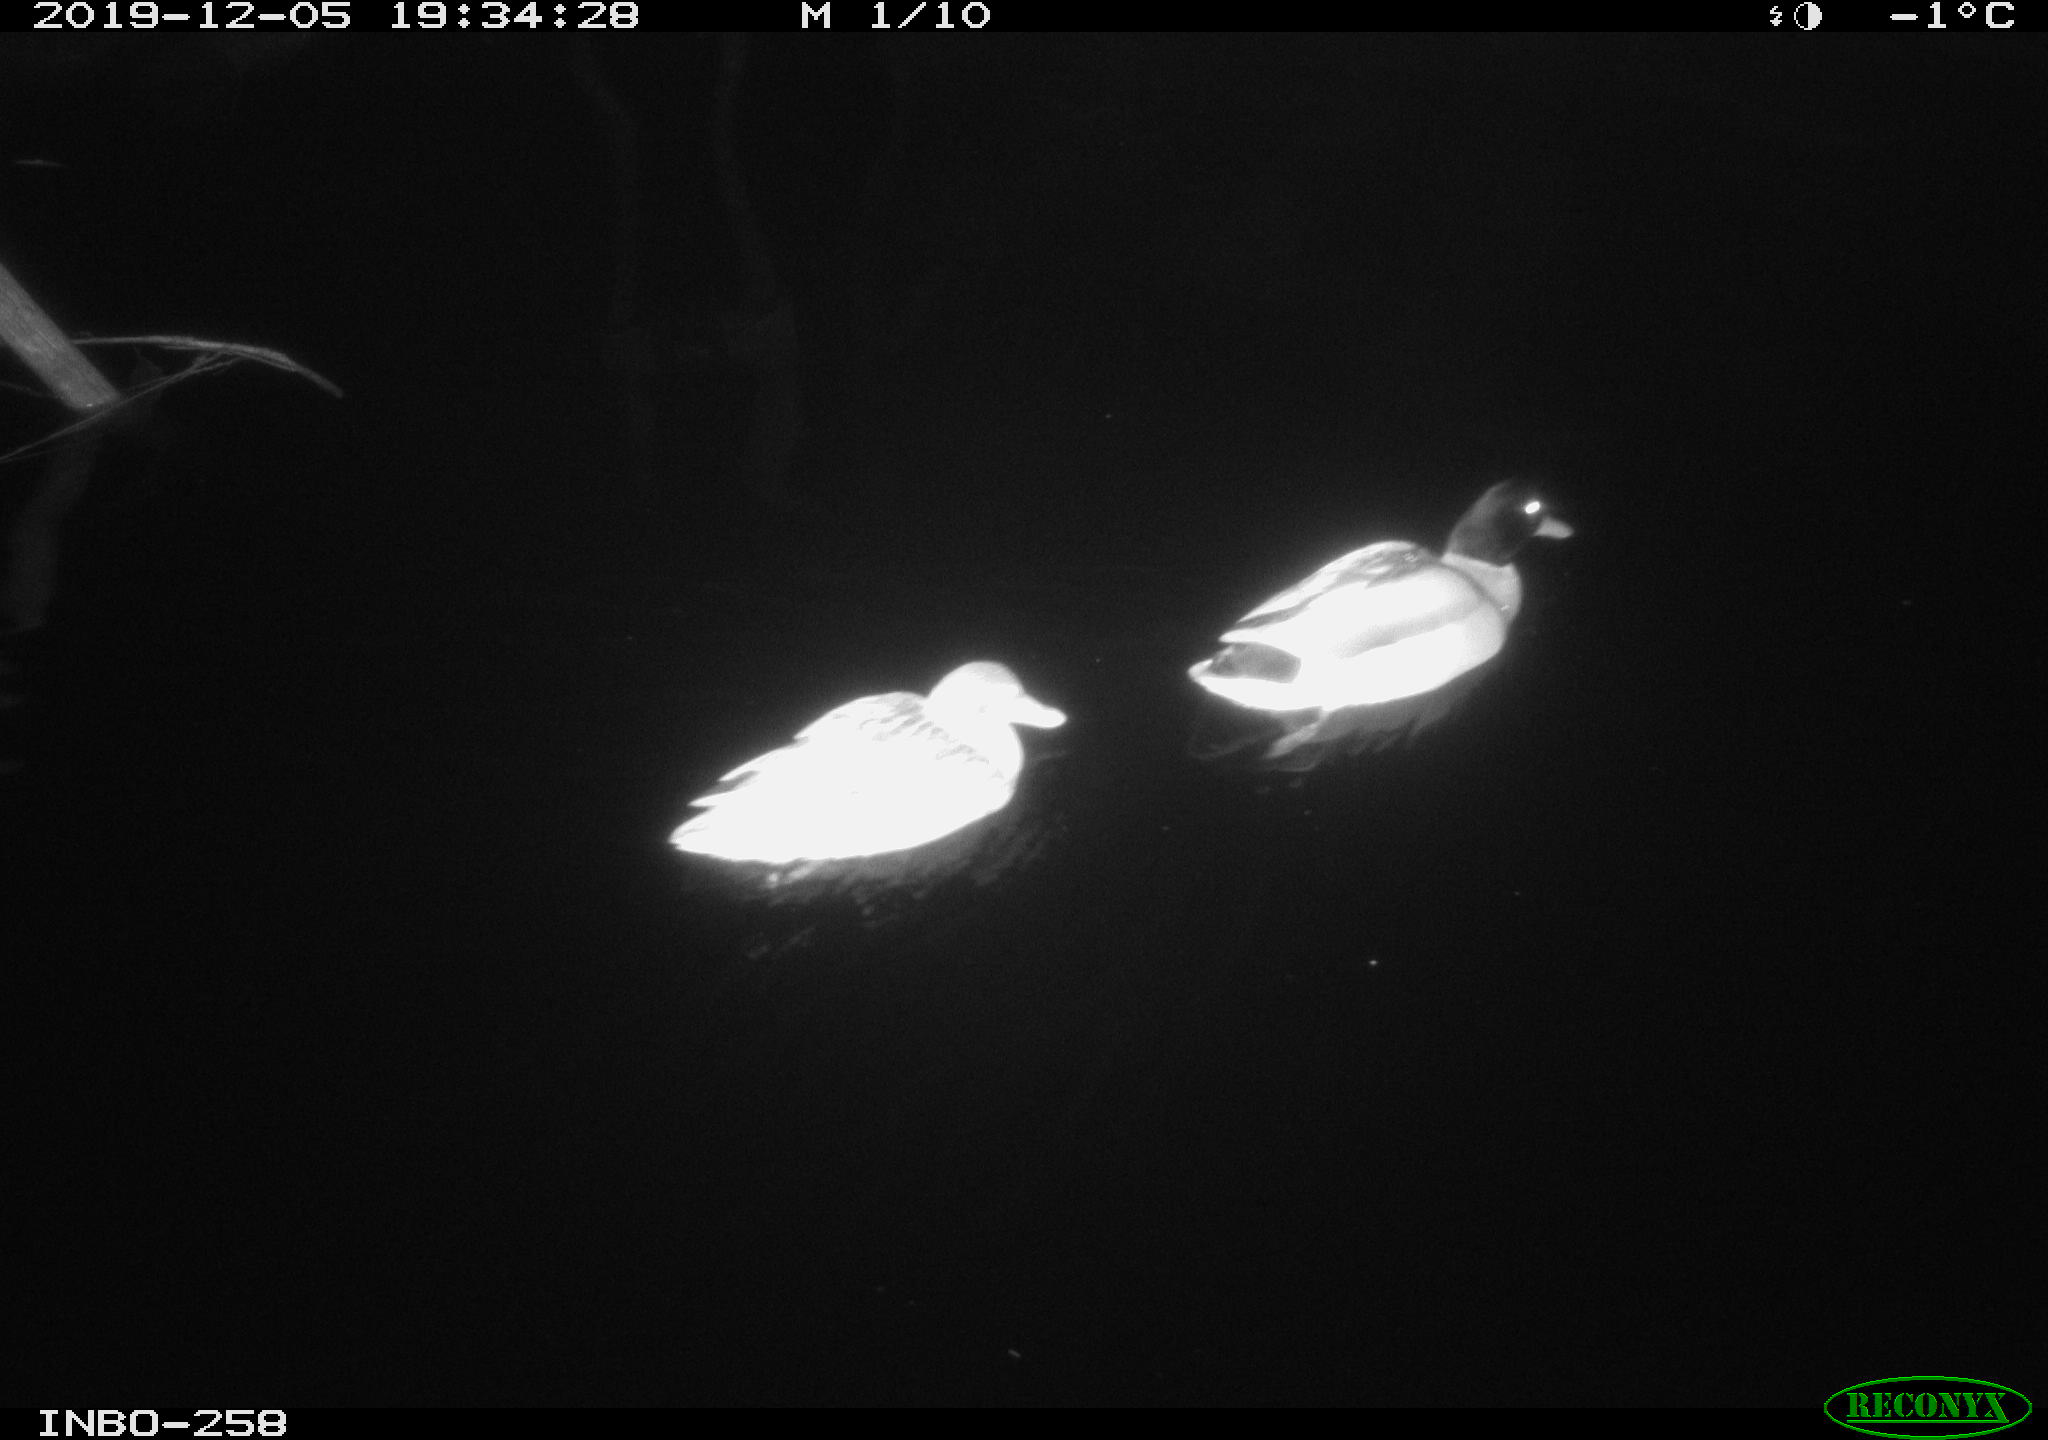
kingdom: Animalia
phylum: Chordata
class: Aves
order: Anseriformes
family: Anatidae
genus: Anas
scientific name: Anas platyrhynchos
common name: Mallard
